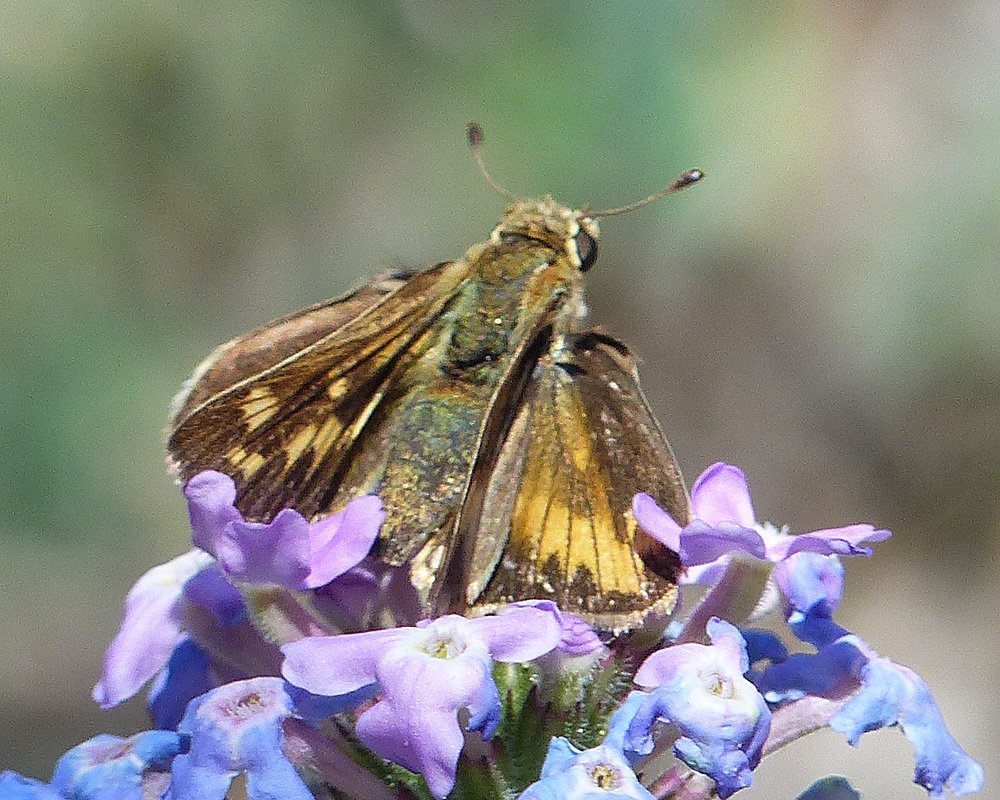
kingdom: Animalia
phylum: Arthropoda
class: Insecta
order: Lepidoptera
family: Hesperiidae
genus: Hylephila
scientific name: Hylephila phyleus
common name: Fiery Skipper
